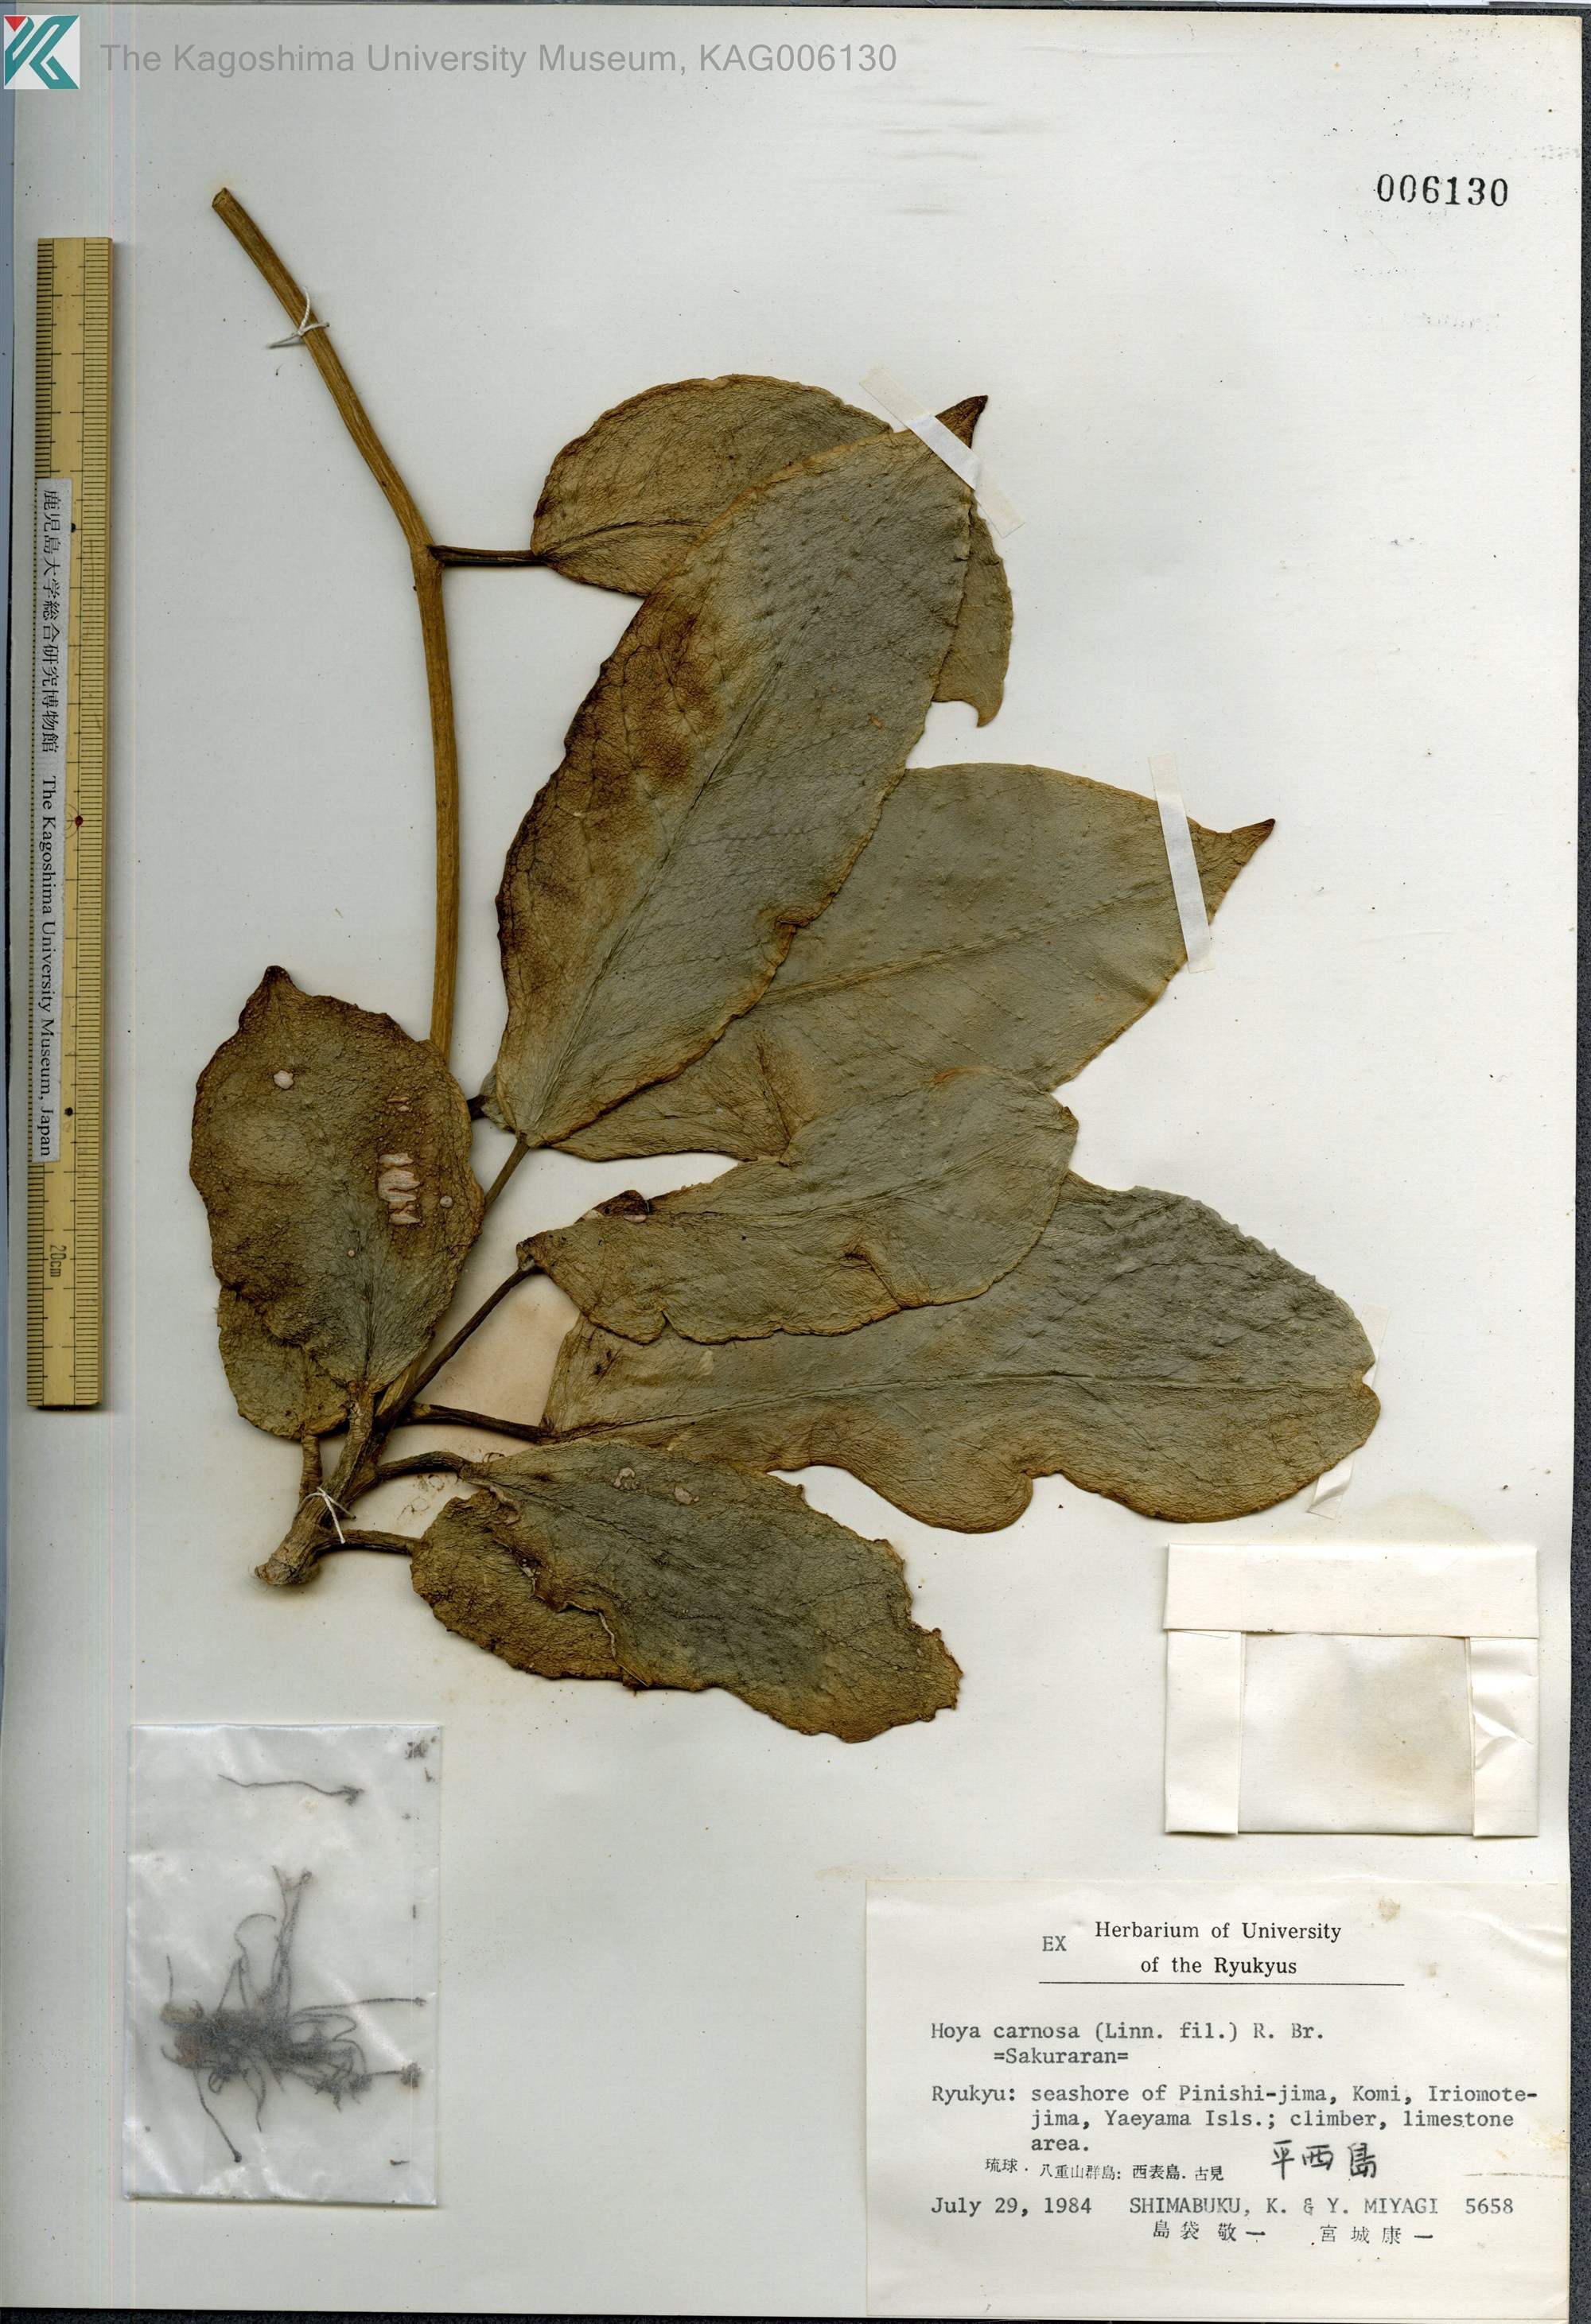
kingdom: Plantae
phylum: Tracheophyta
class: Magnoliopsida
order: Gentianales
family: Apocynaceae
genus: Hoya
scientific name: Hoya carnosa
